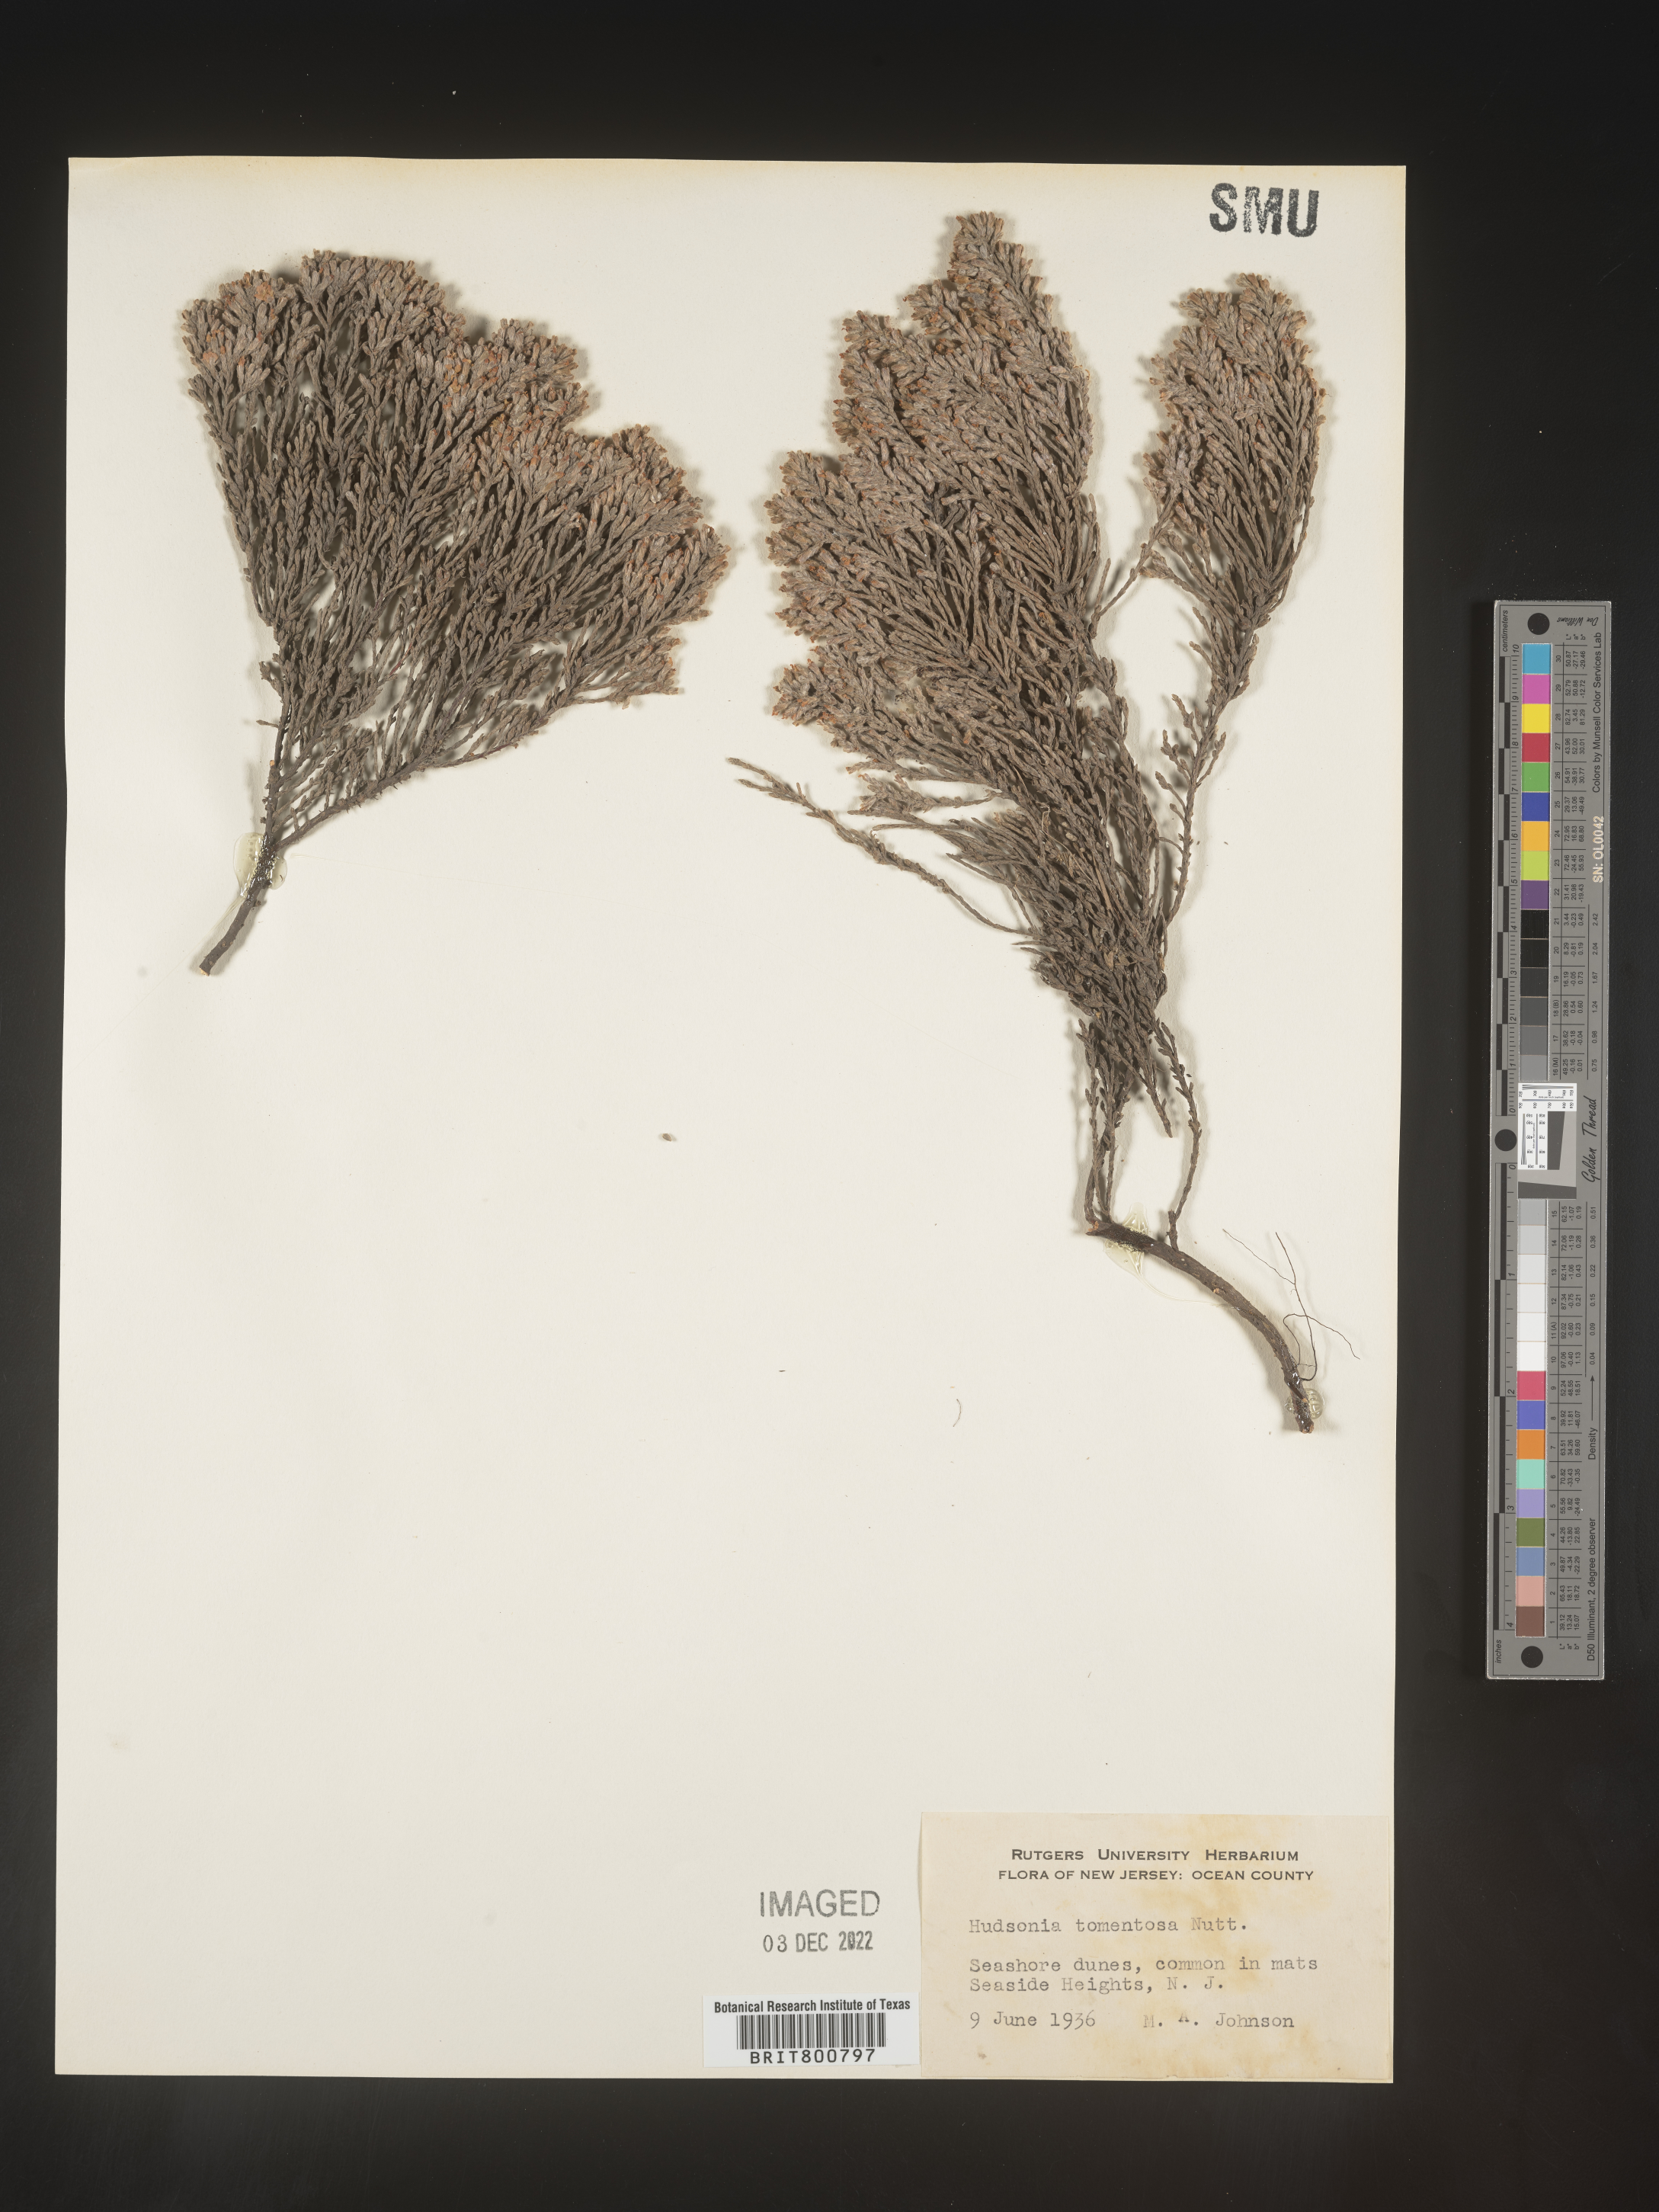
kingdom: Plantae
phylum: Tracheophyta
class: Magnoliopsida
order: Malvales
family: Cistaceae
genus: Hudsonia
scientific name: Hudsonia tomentosa
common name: Beach-heath
